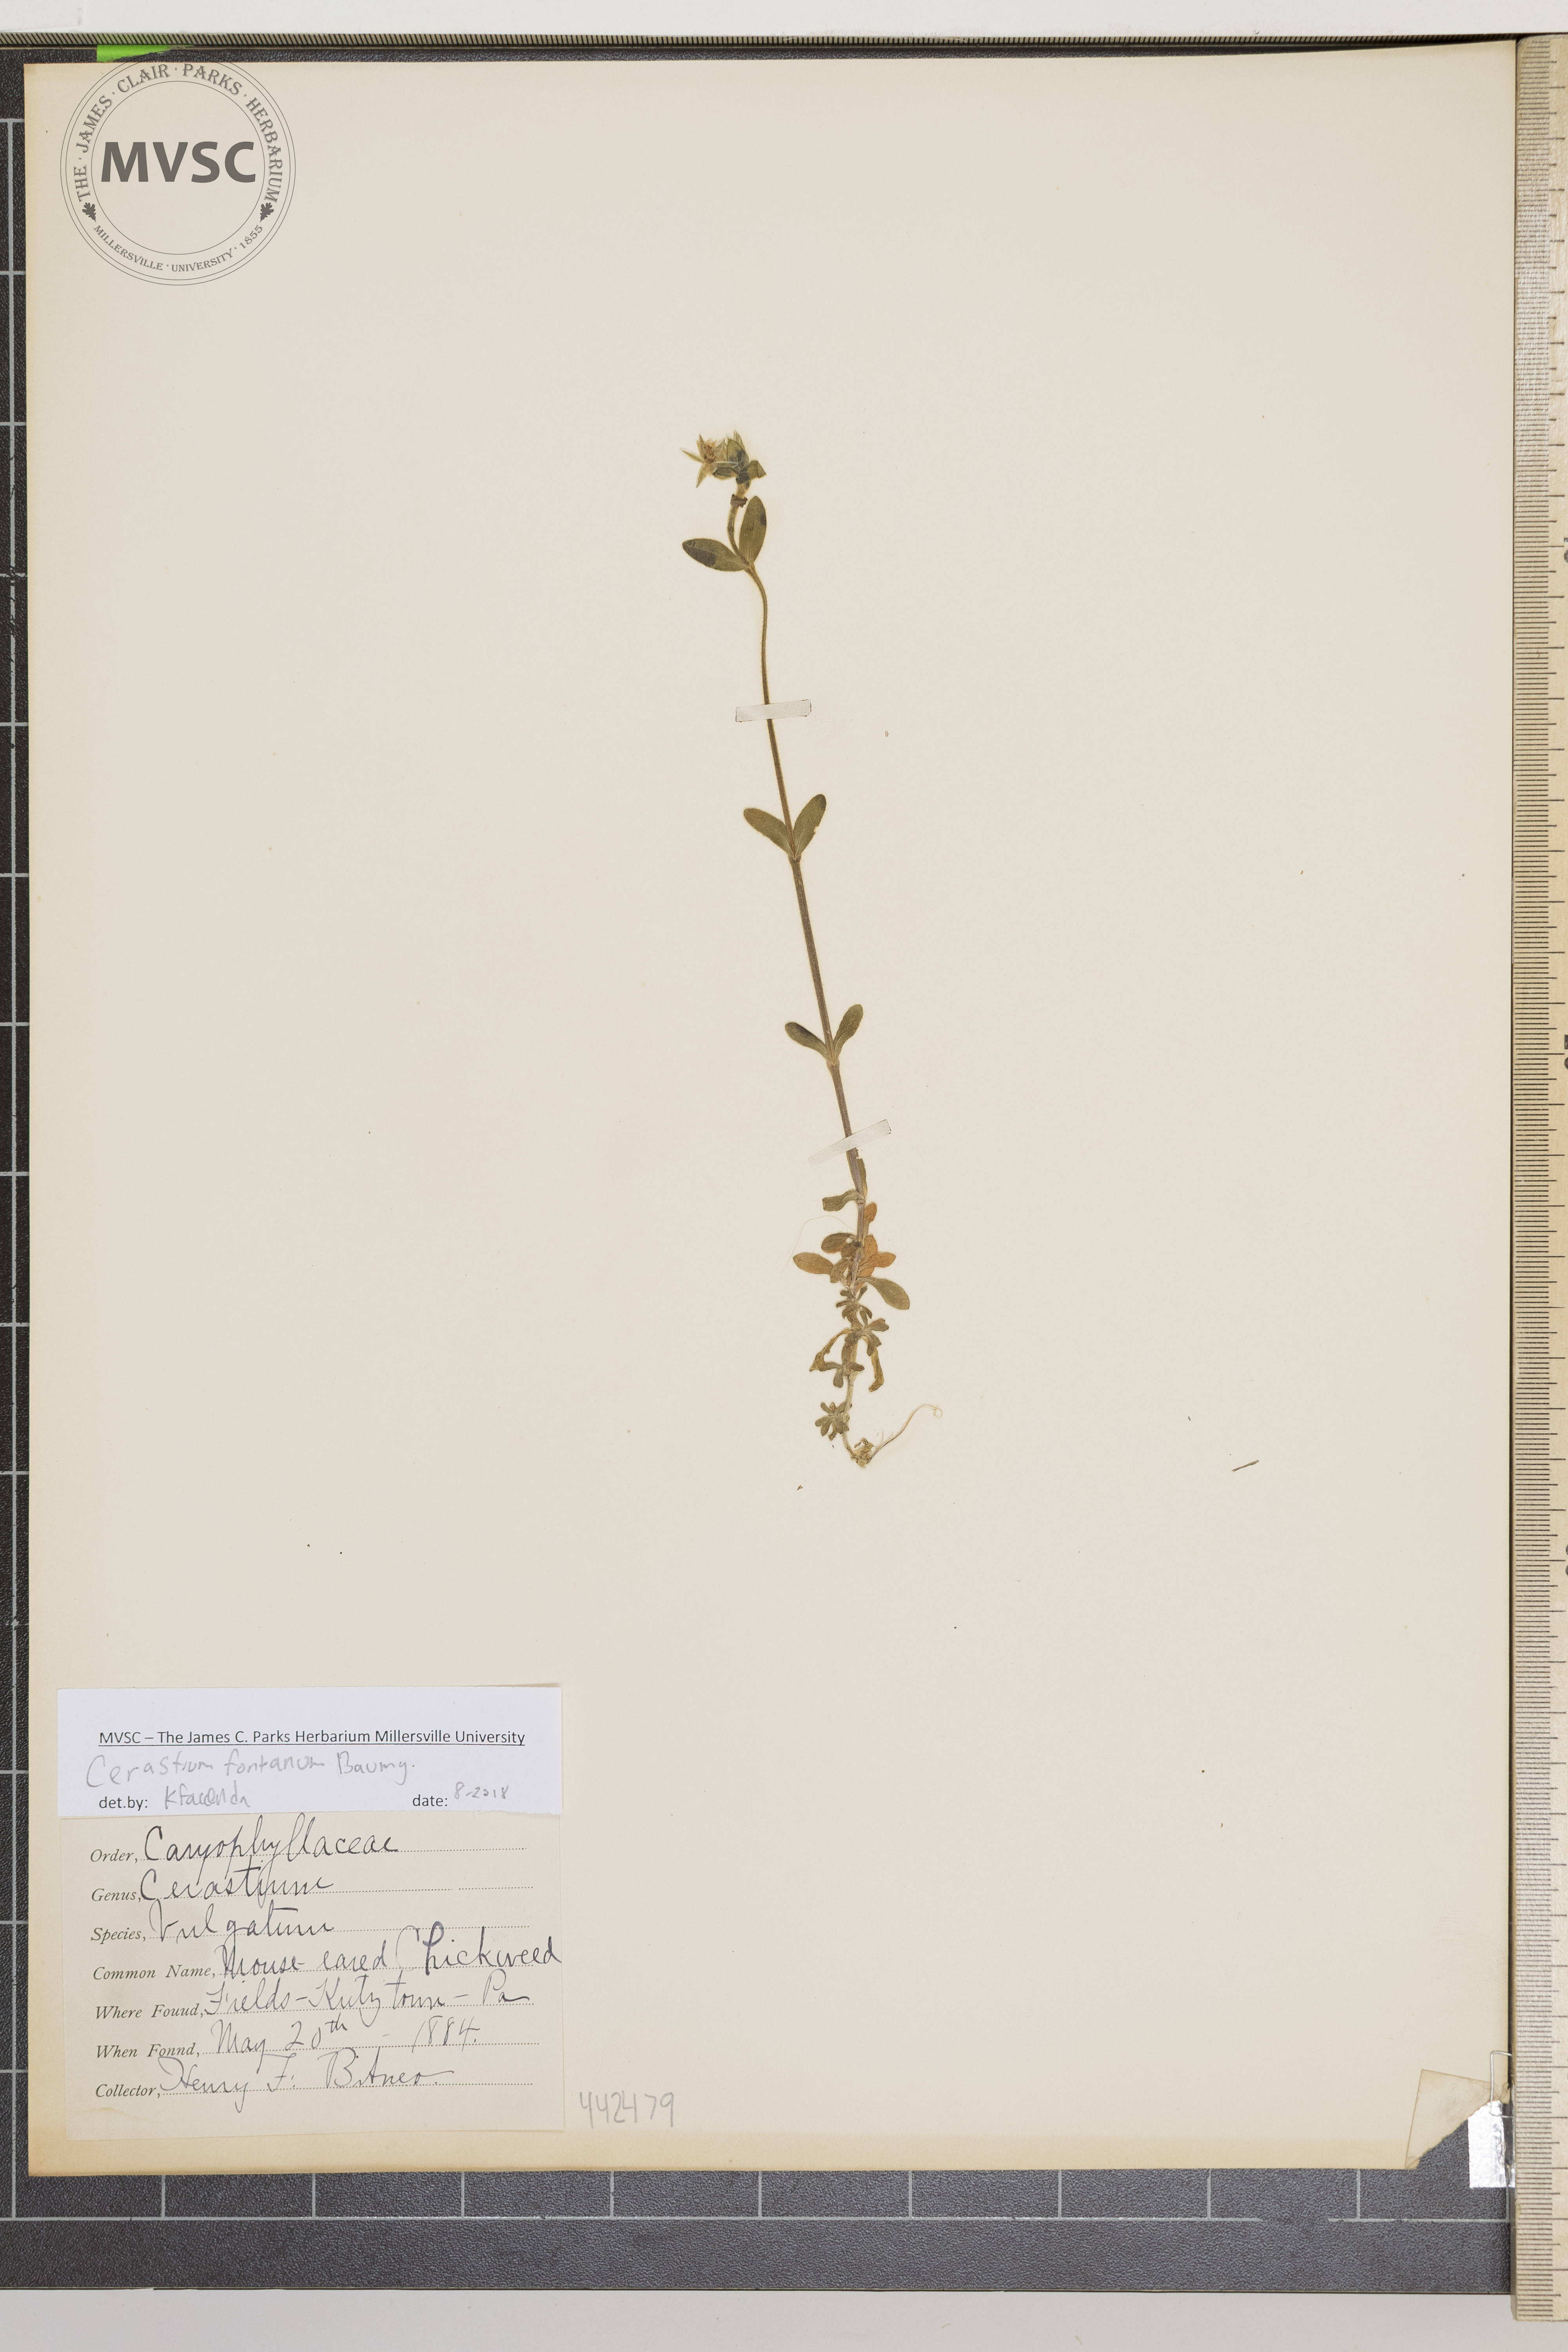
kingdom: Plantae
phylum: Tracheophyta
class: Magnoliopsida
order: Caryophyllales
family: Caryophyllaceae
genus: Cerastium
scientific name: Cerastium fontanum
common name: Mouse-ear chickweed
